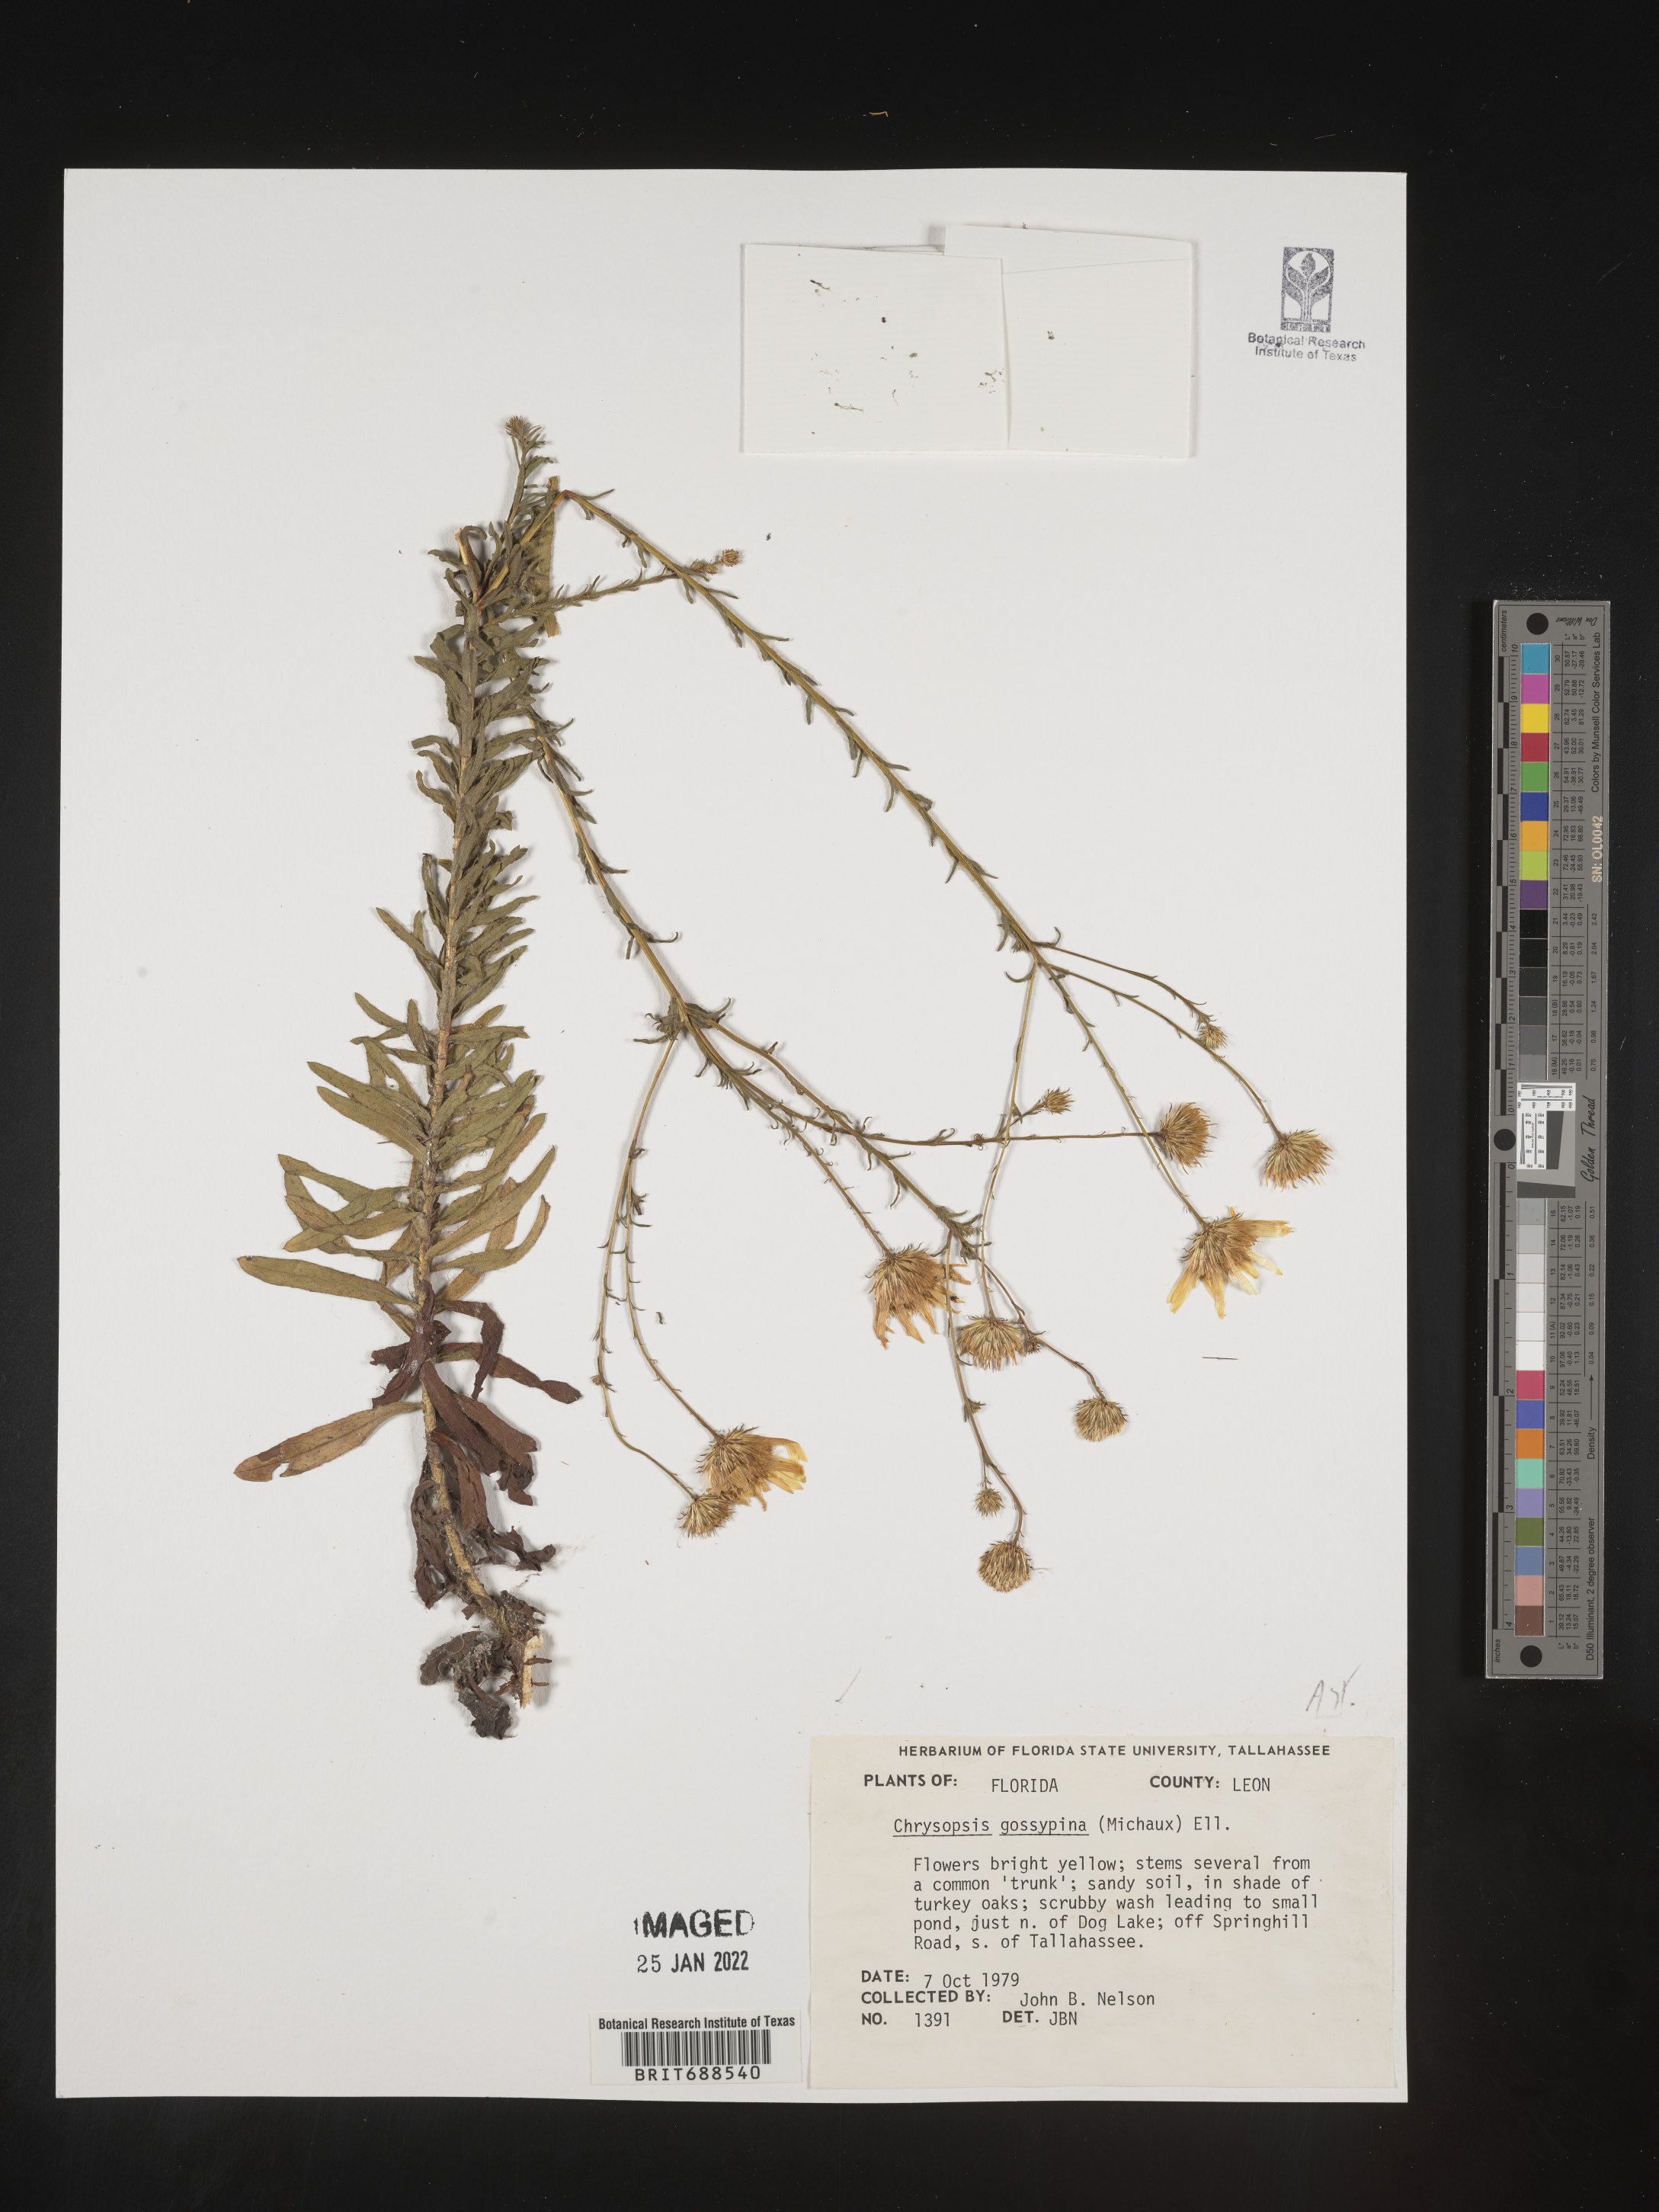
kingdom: Plantae
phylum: Tracheophyta
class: Magnoliopsida
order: Asterales
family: Asteraceae
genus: Chrysopsis
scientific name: Chrysopsis gossypina
